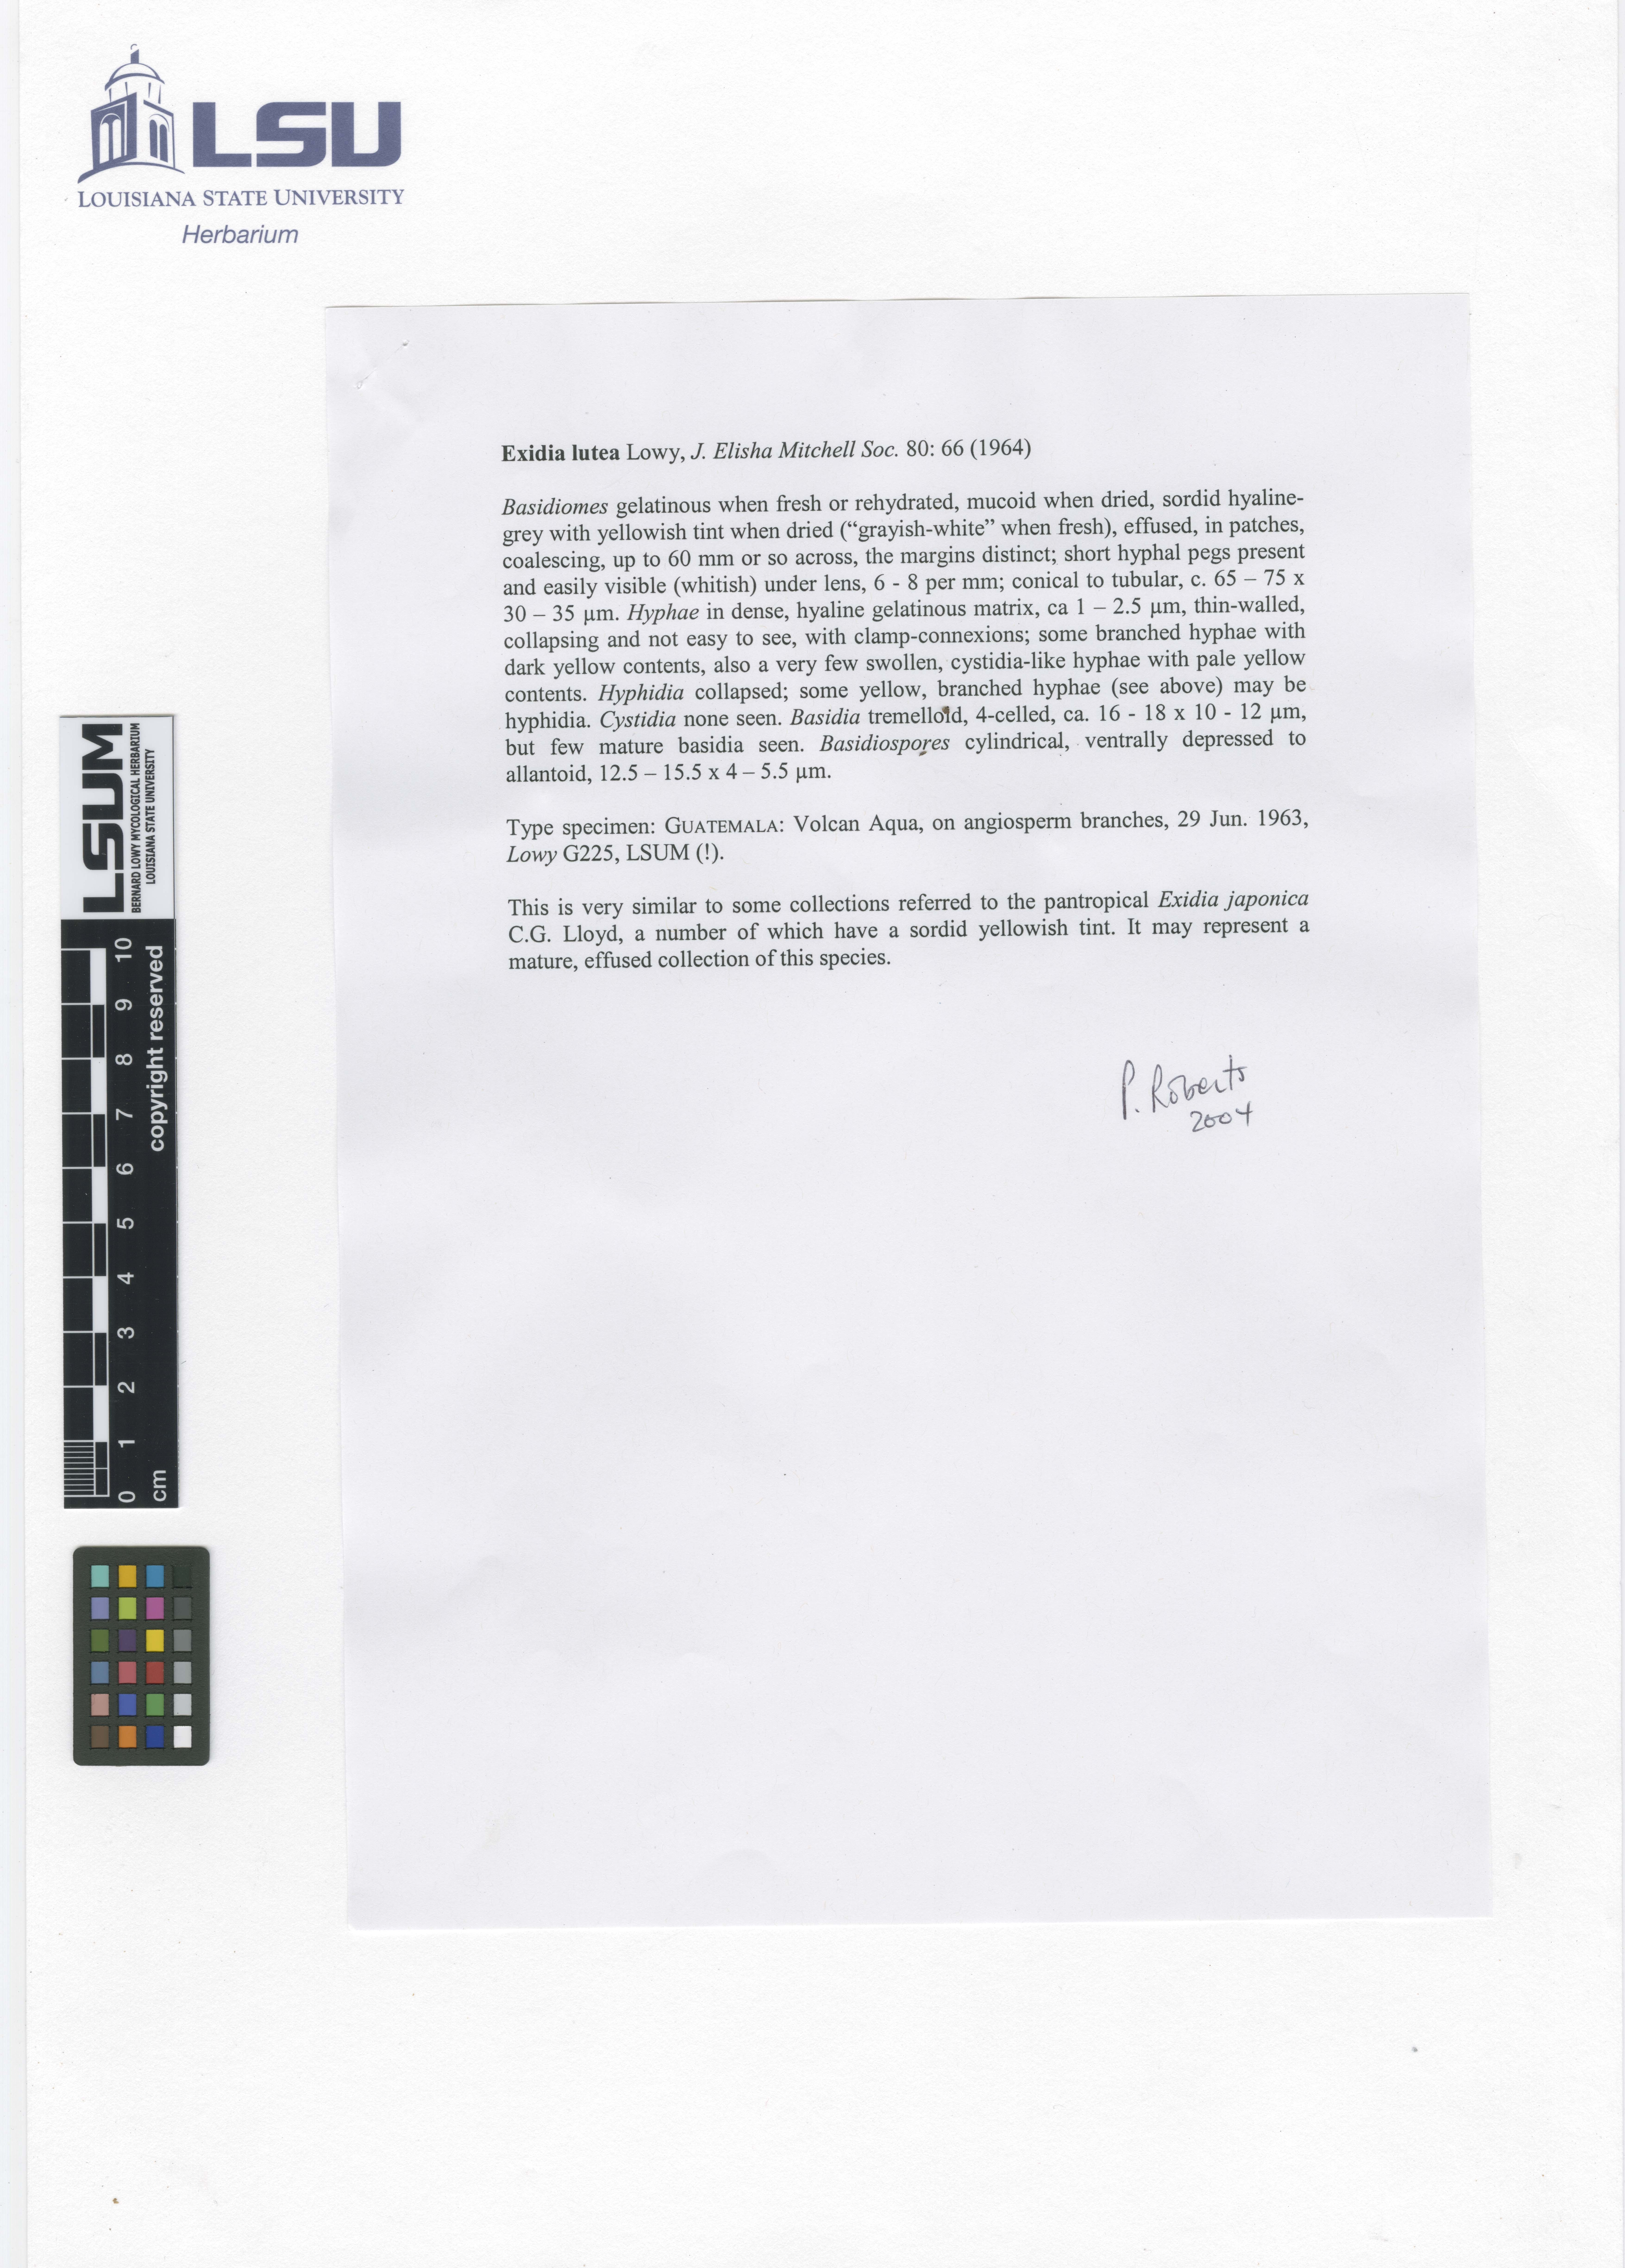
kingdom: Fungi
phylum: Basidiomycota
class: Agaricomycetes
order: Auriculariales
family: Auriculariaceae
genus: Exidia
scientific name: Exidia lutea
